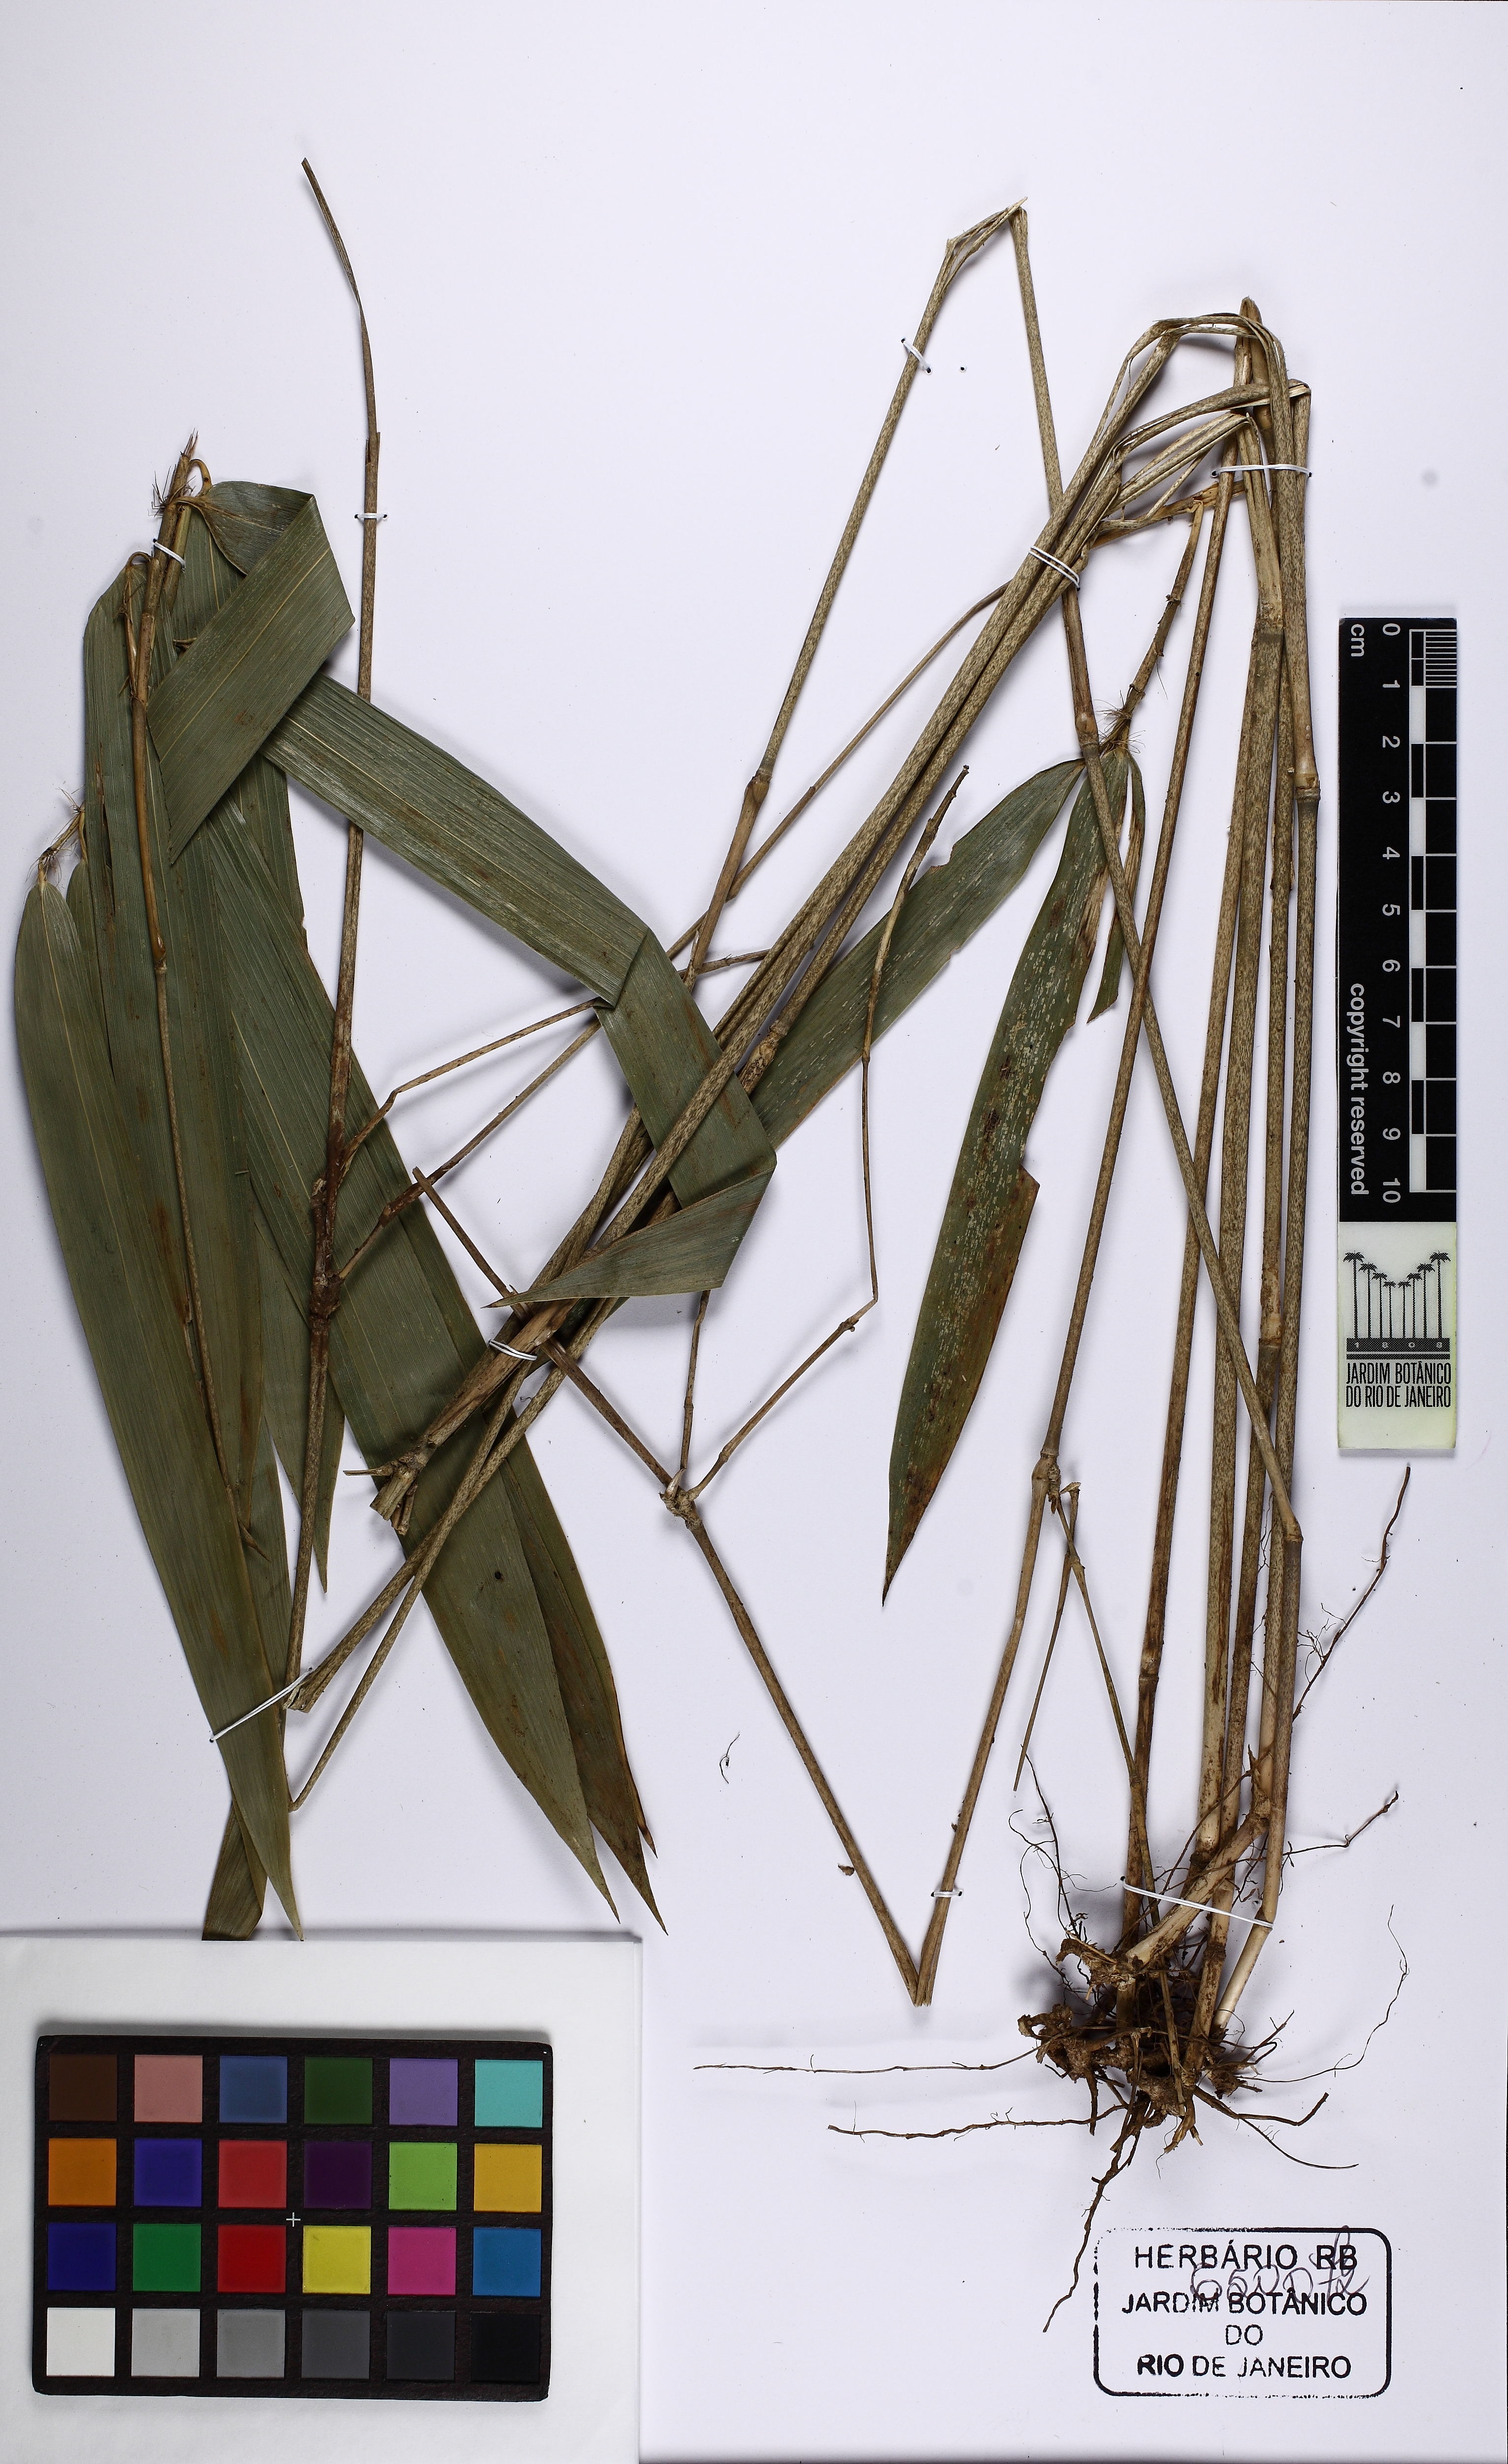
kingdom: Plantae
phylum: Tracheophyta
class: Liliopsida
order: Poales
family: Poaceae
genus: Merostachys
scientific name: Merostachys
